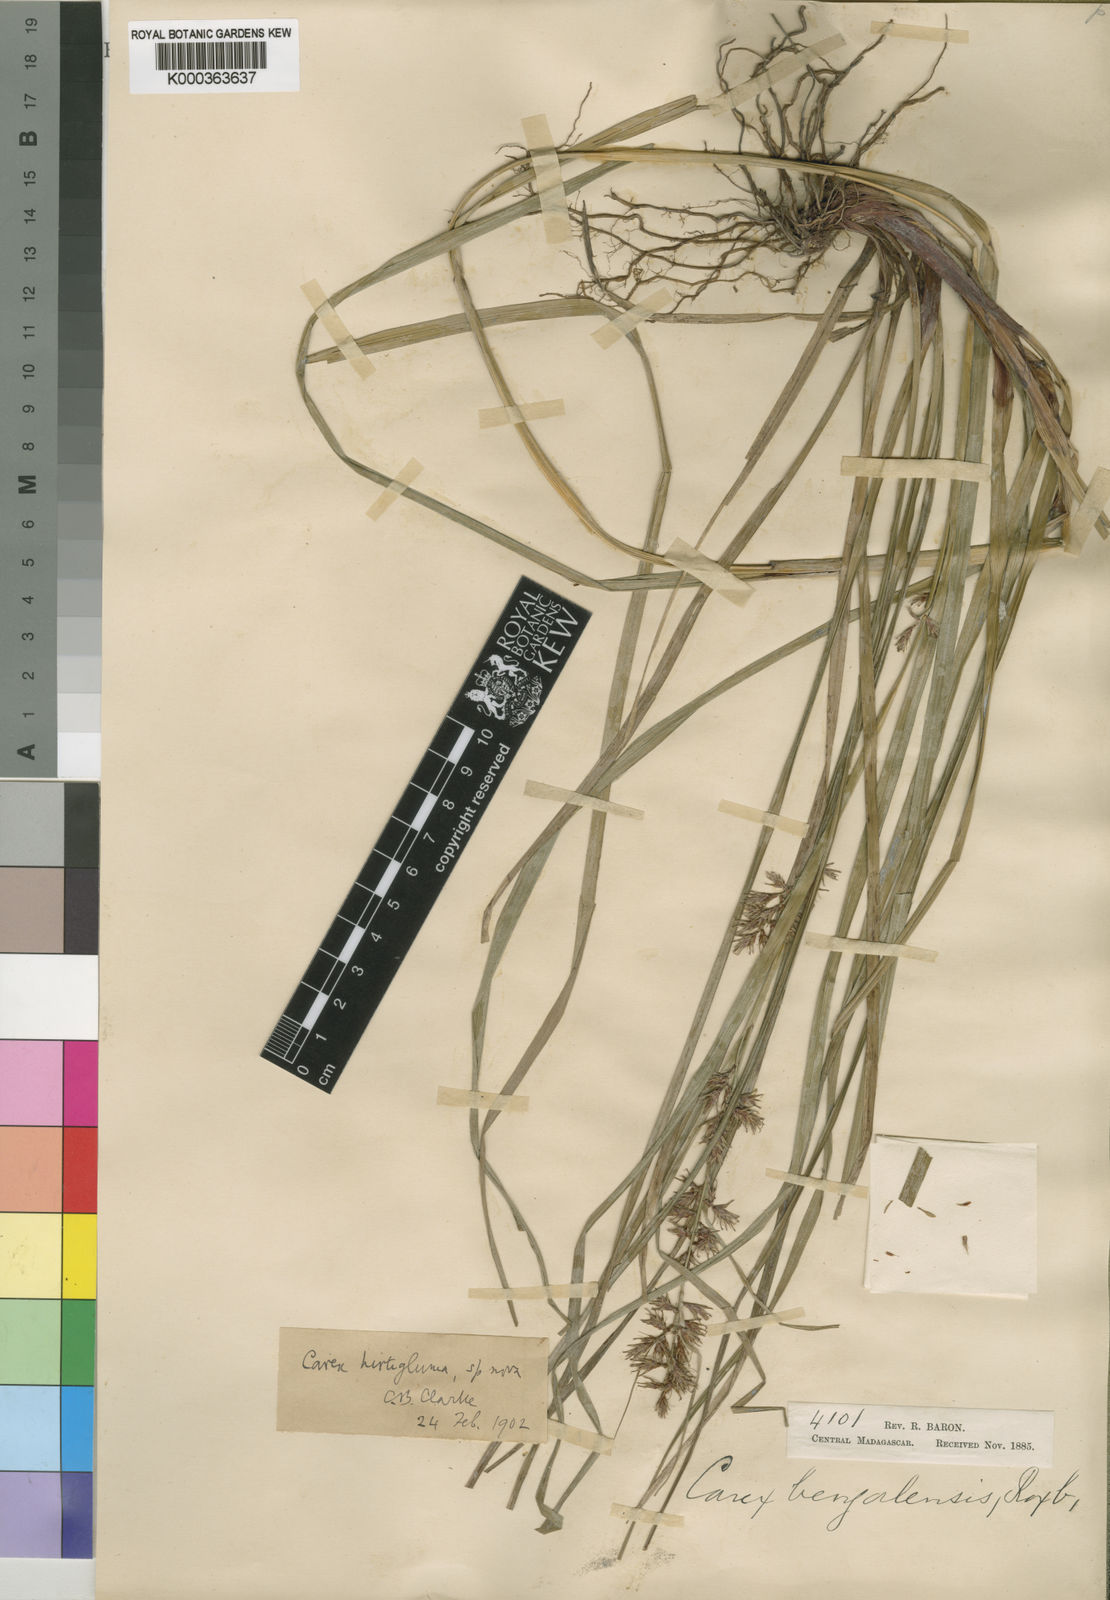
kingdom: Plantae
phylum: Tracheophyta
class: Liliopsida
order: Poales
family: Cyperaceae
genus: Carex
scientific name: Carex hirtigluma
